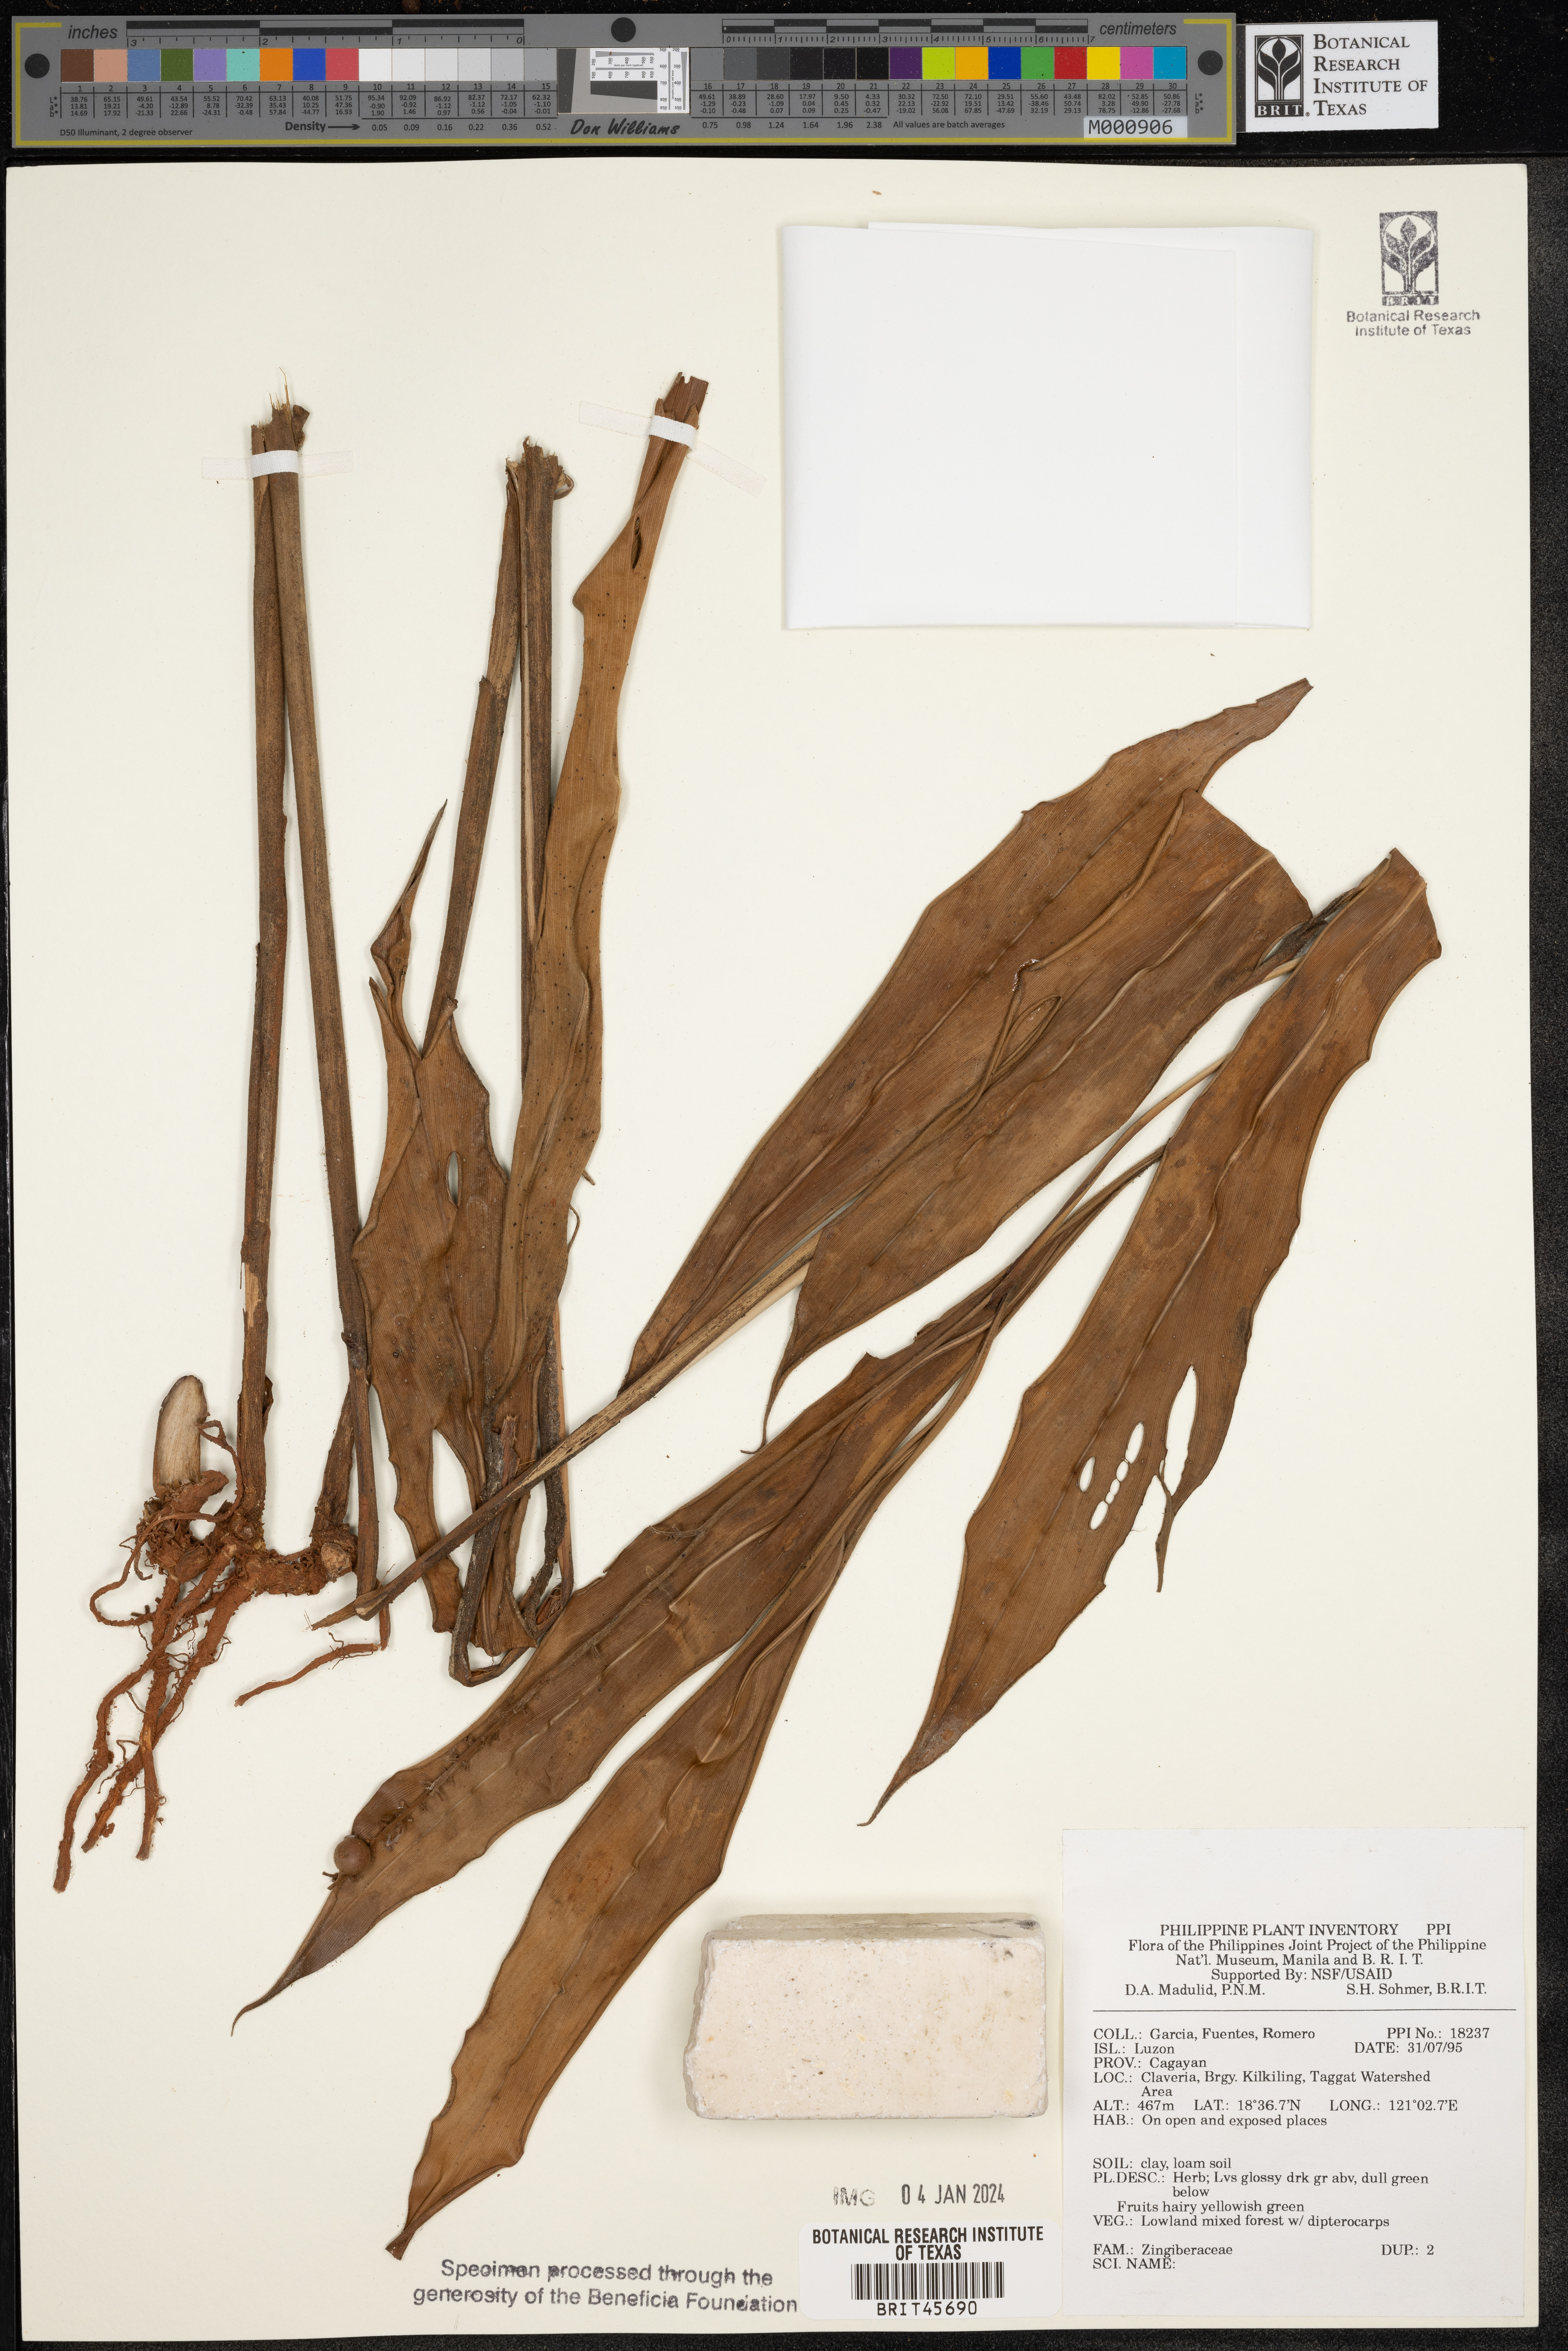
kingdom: Plantae
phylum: Tracheophyta
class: Liliopsida
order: Zingiberales
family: Zingiberaceae
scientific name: Zingiberaceae
